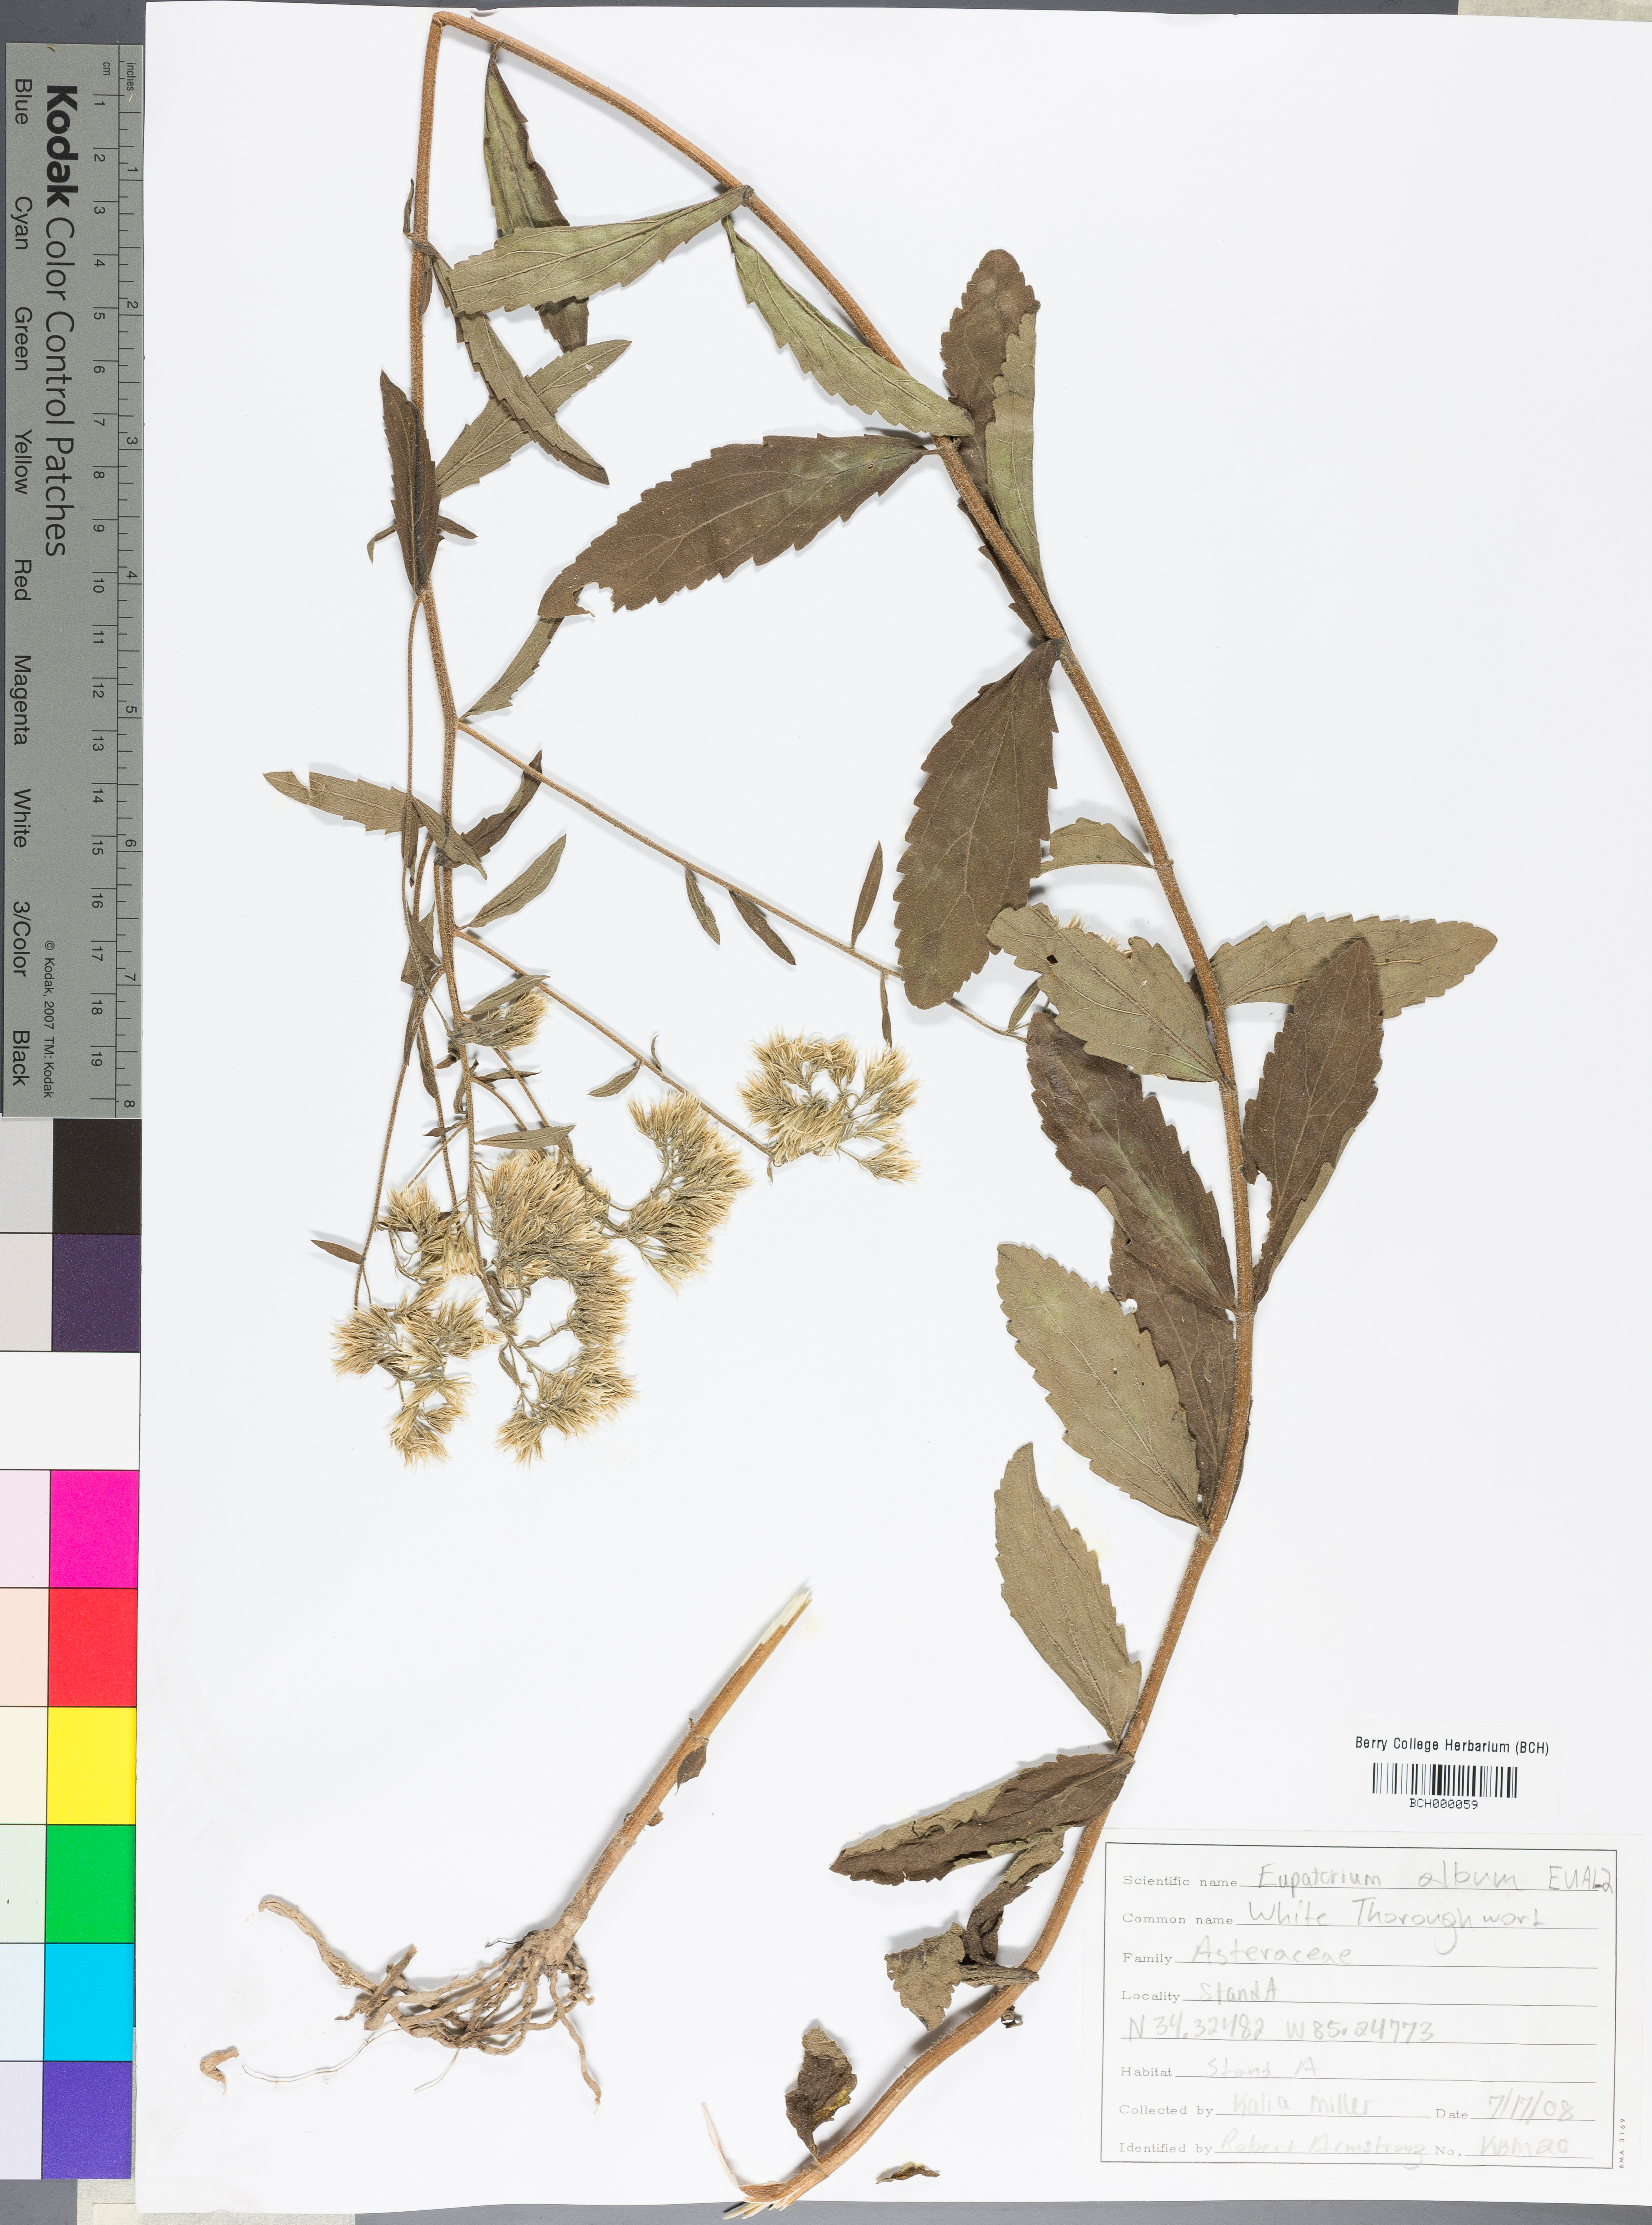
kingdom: Plantae
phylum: Tracheophyta
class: Magnoliopsida
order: Asterales
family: Asteraceae
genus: Eupatorium
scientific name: Eupatorium album
